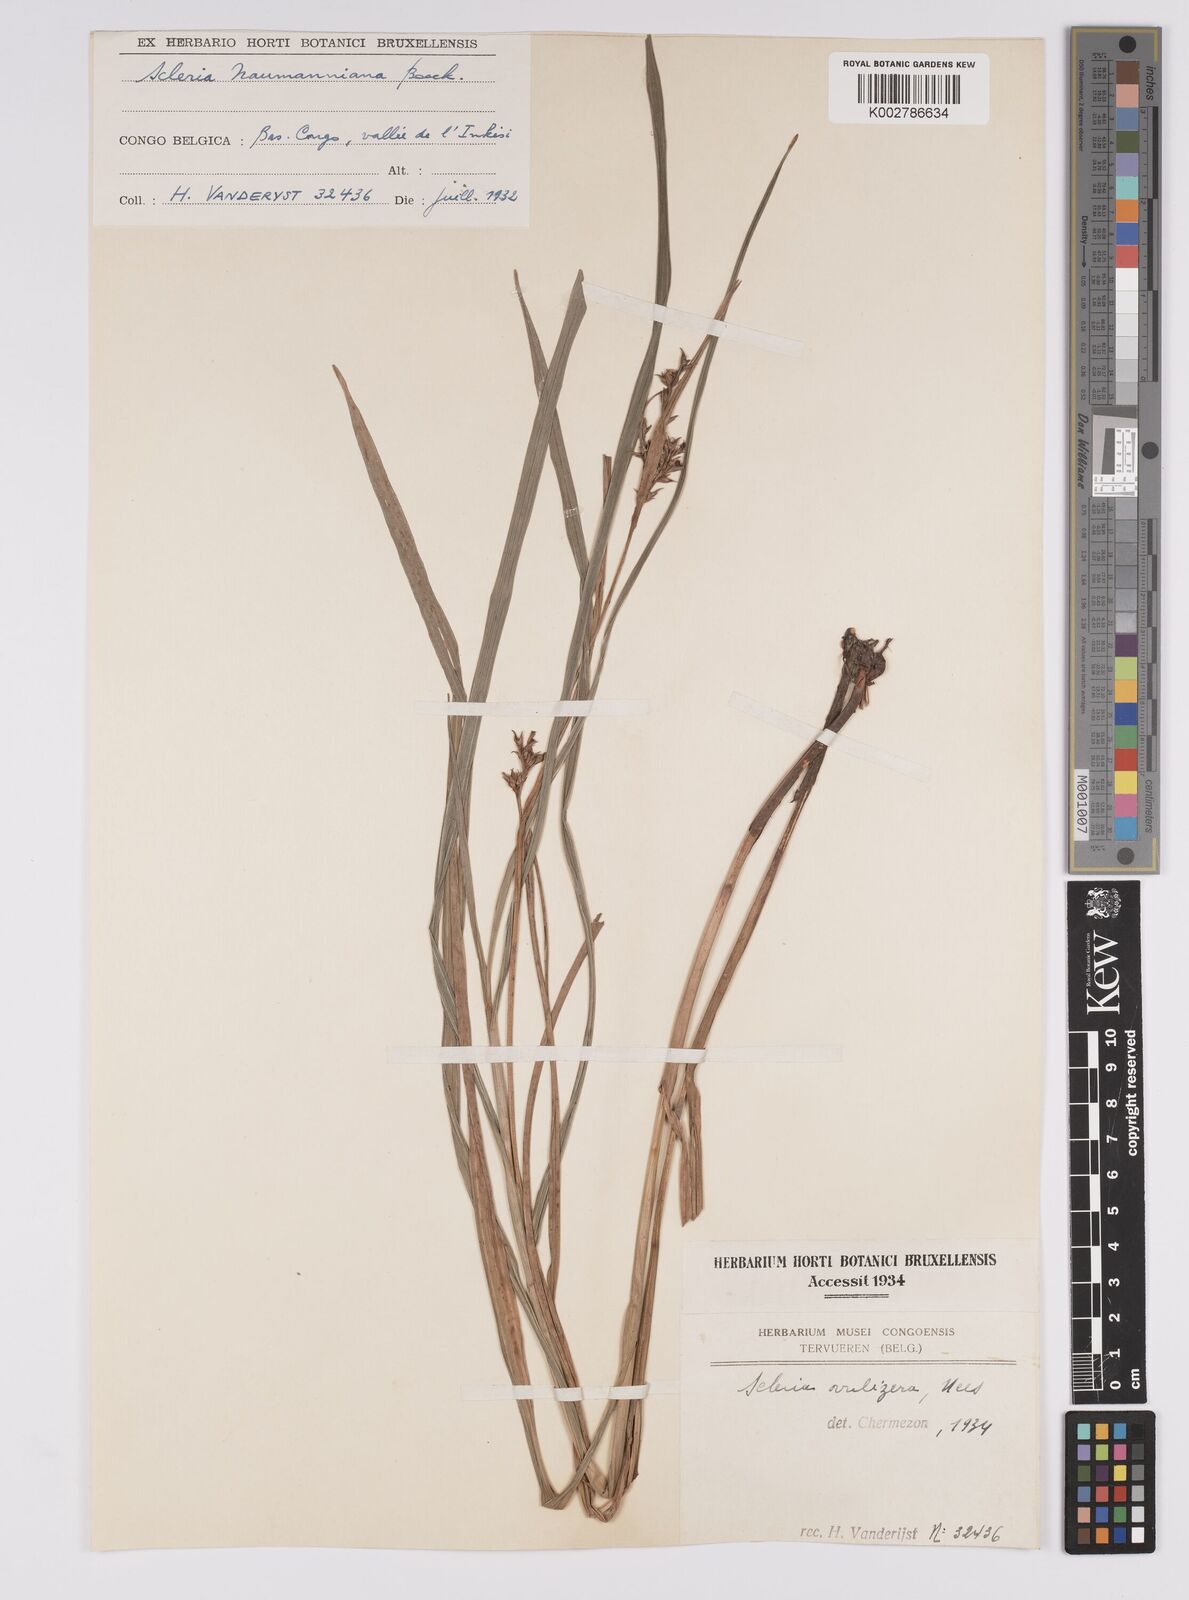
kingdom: Plantae
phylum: Tracheophyta
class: Liliopsida
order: Poales
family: Cyperaceae
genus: Scleria
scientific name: Scleria naumanniana
